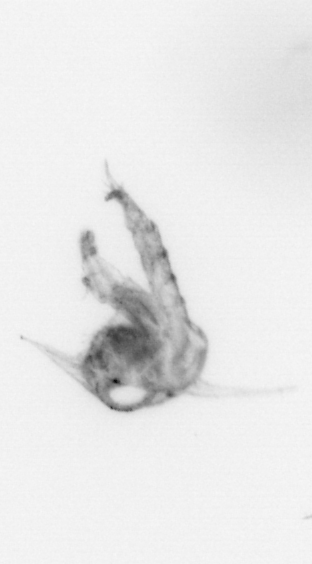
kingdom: Animalia
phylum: Arthropoda
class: Malacostraca
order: Decapoda
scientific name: Decapoda
